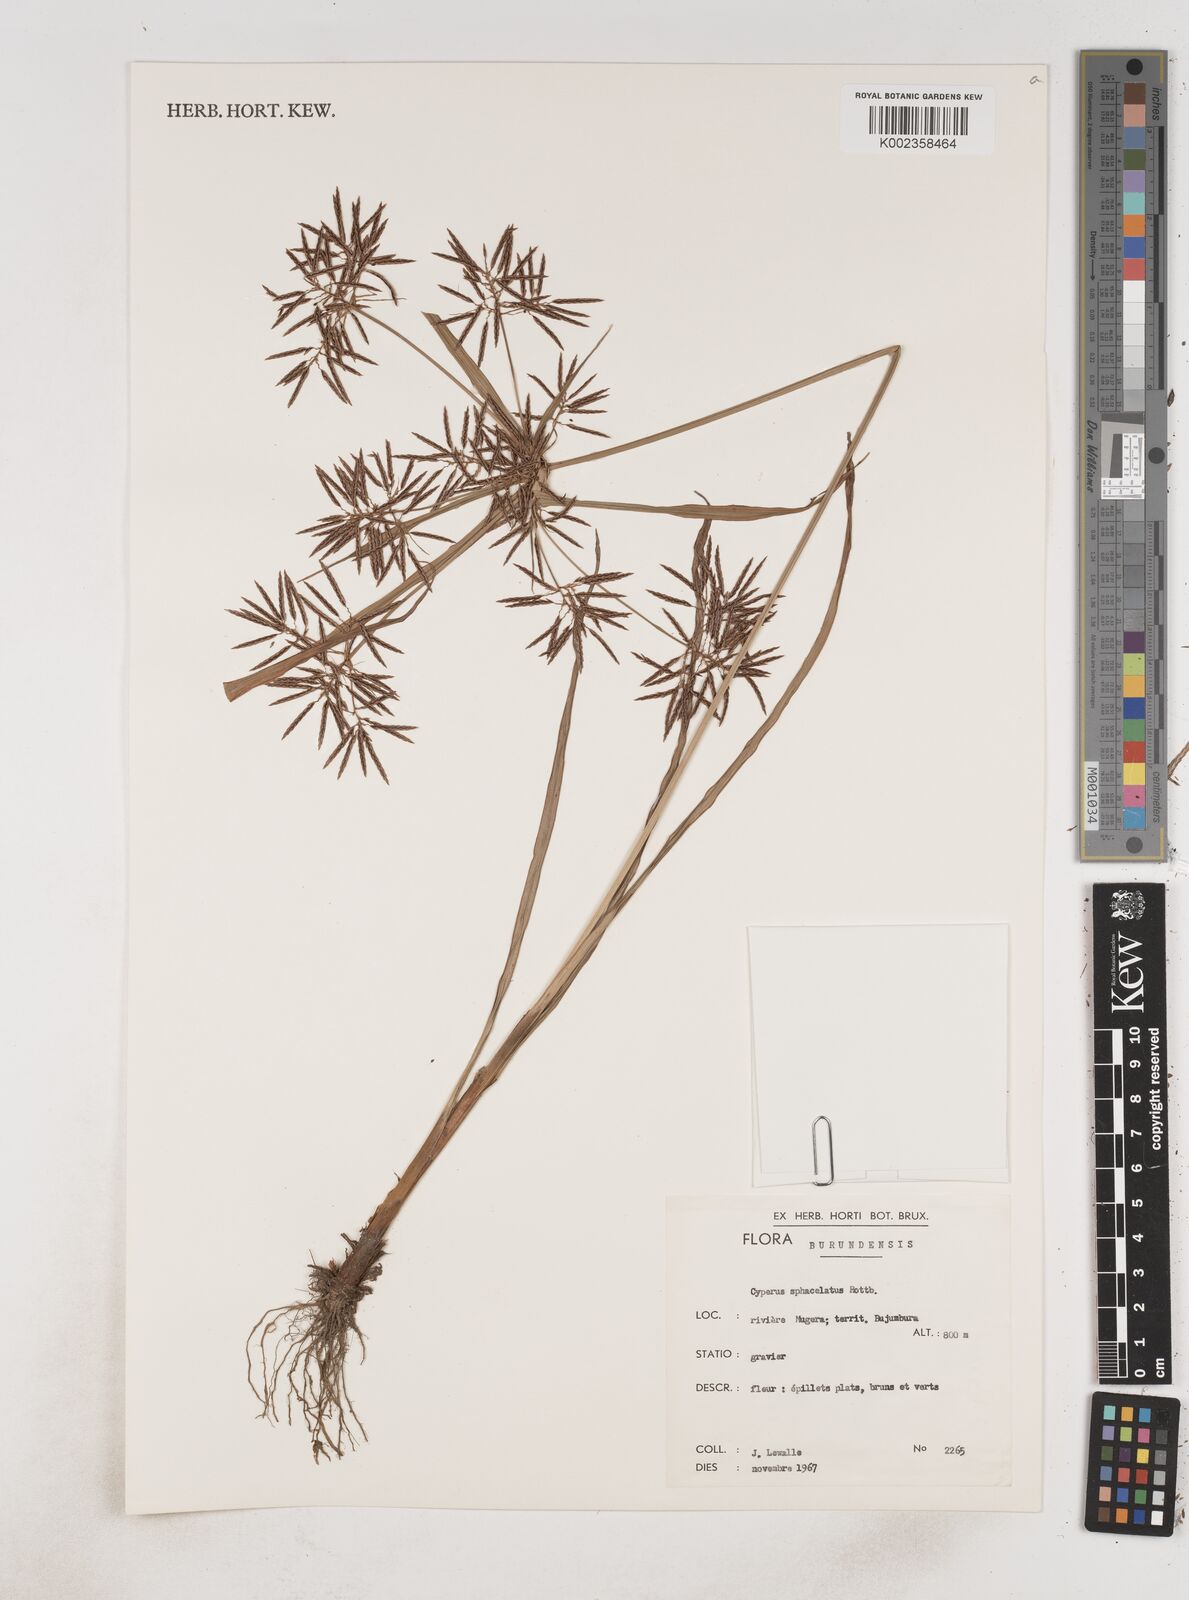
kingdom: Plantae
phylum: Tracheophyta
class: Liliopsida
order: Poales
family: Cyperaceae
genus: Cyperus
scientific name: Cyperus sphacelatus
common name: Roadside flatsedge
